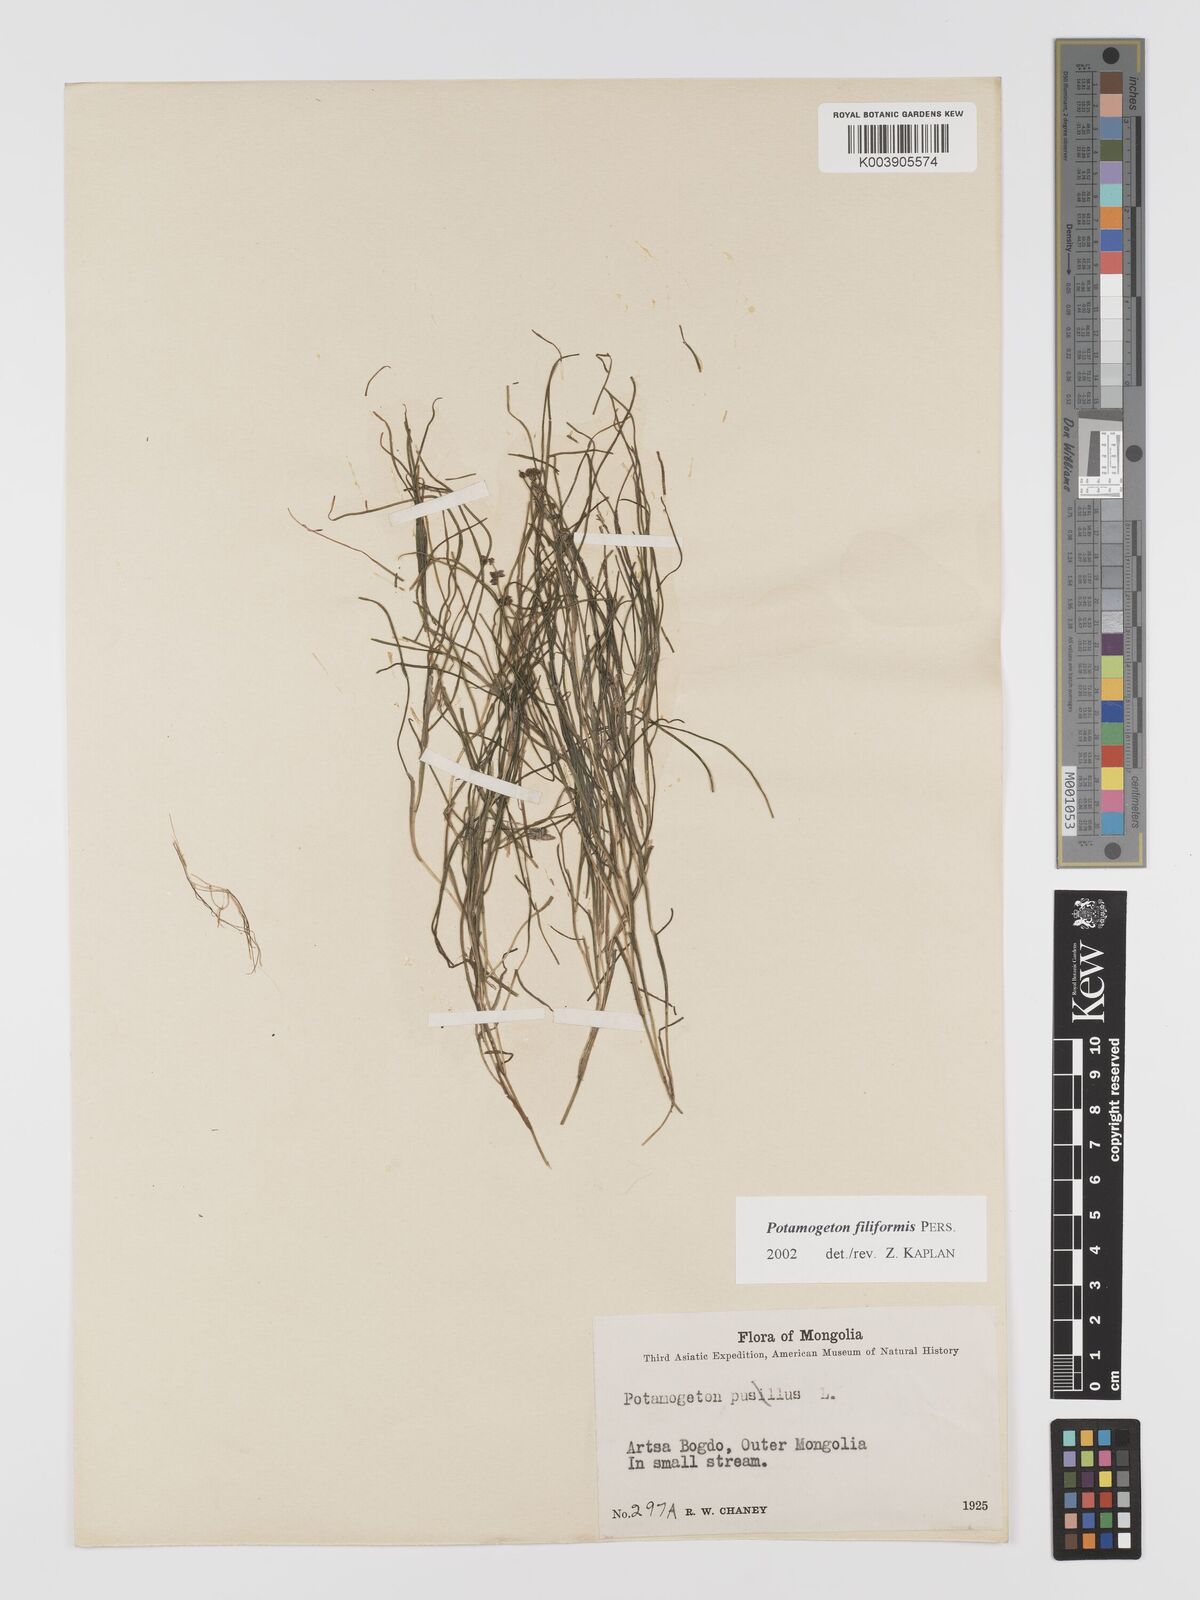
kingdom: Plantae
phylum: Tracheophyta
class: Liliopsida
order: Alismatales
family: Potamogetonaceae
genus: Stuckenia
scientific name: Stuckenia filiformis
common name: Alpine thread-leaved pondweed
